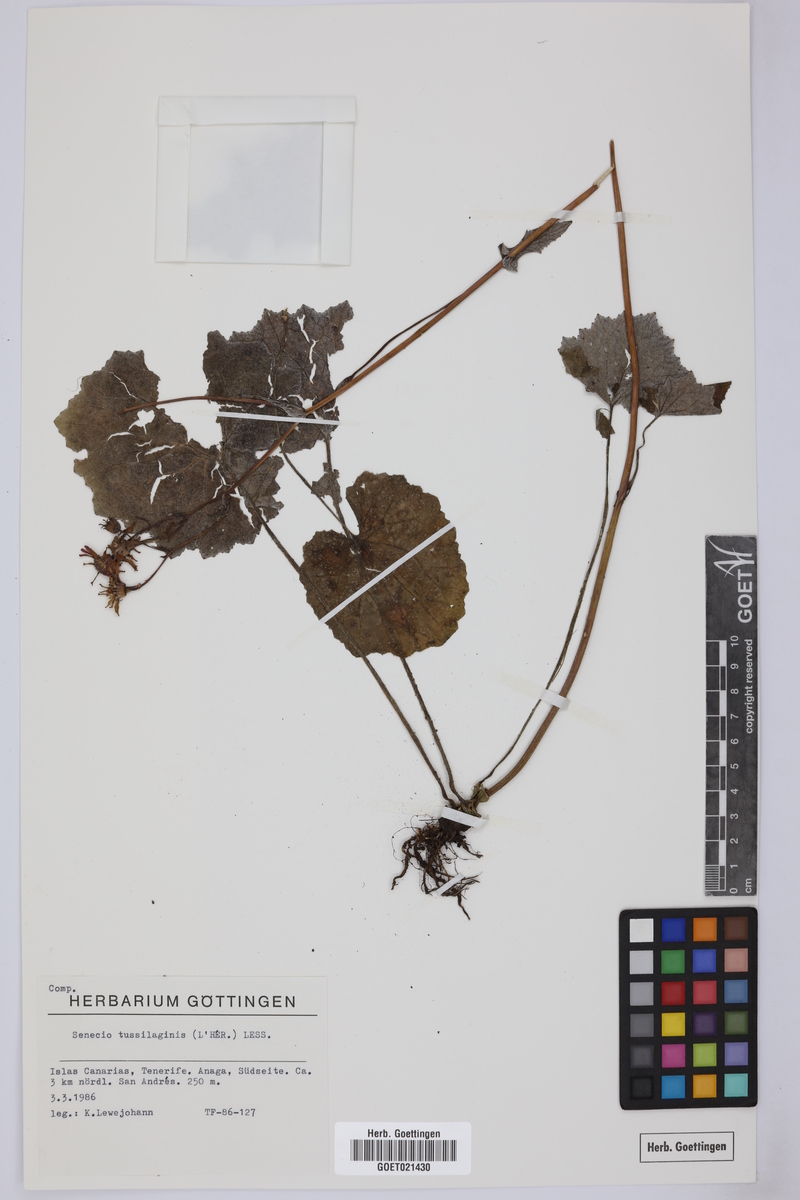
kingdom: Plantae
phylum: Tracheophyta
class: Magnoliopsida
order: Asterales
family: Asteraceae
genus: Pericallis
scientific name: Pericallis tussilaginis
